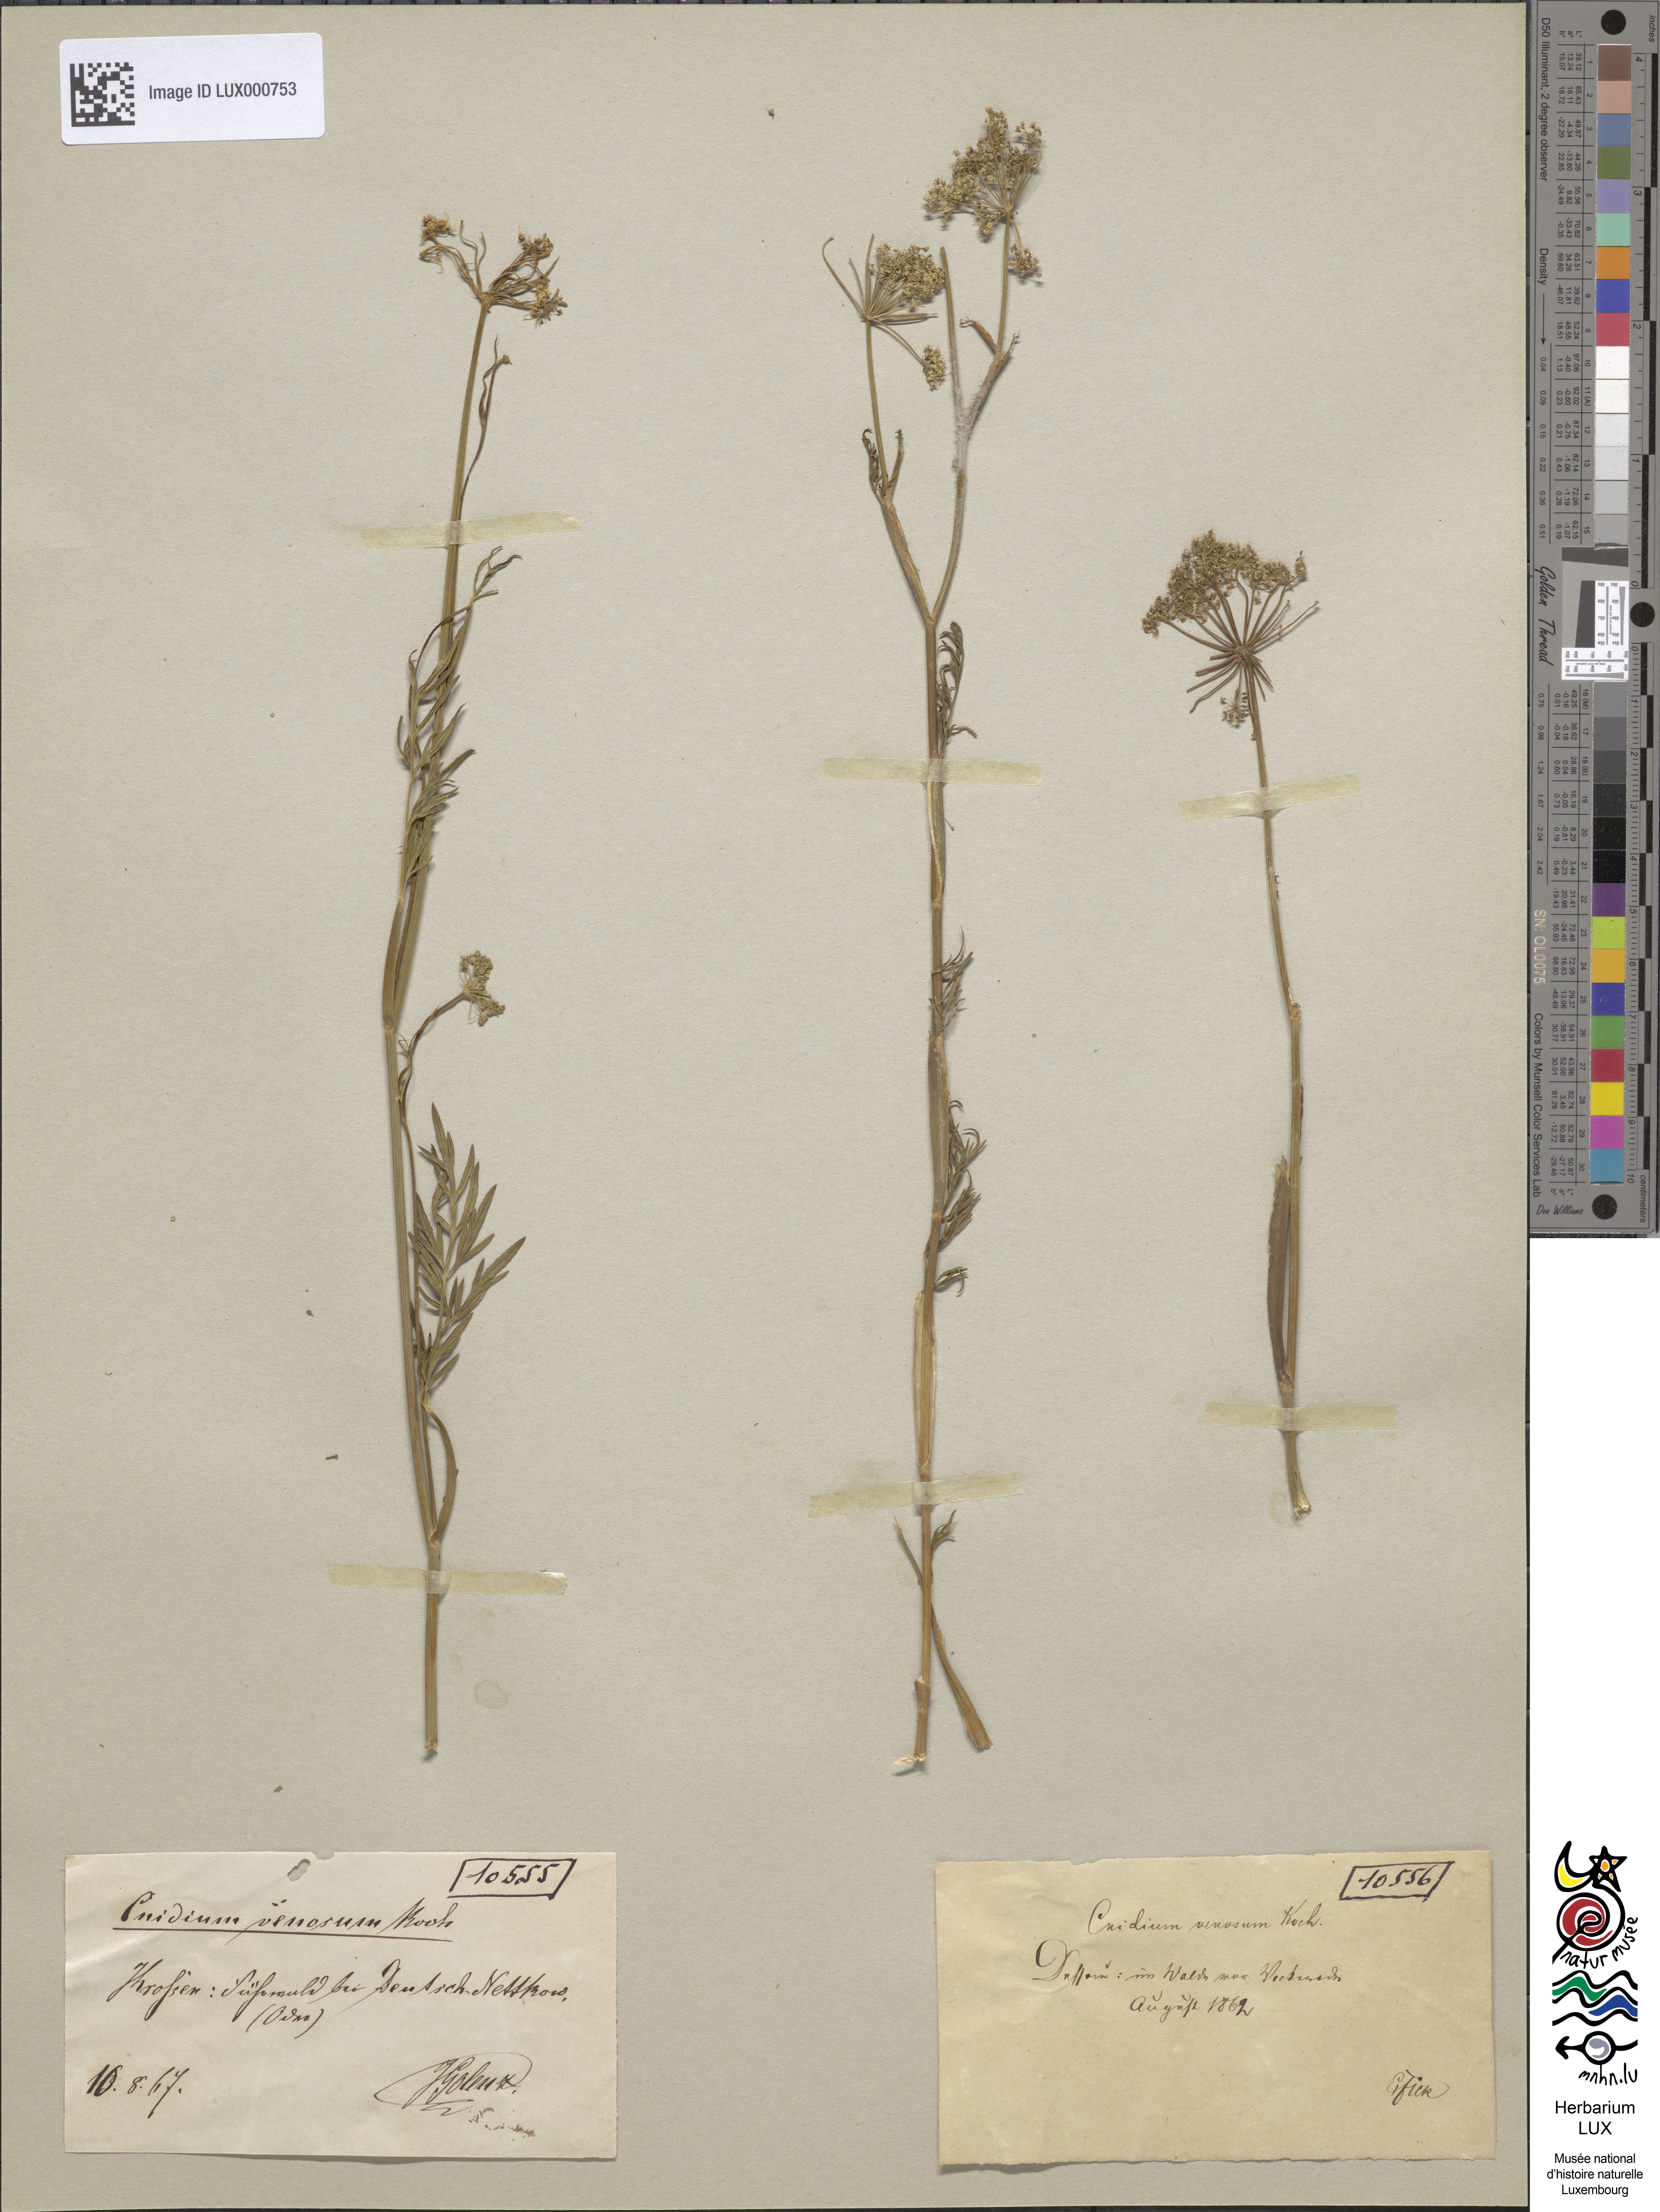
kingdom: Plantae
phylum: Tracheophyta
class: Magnoliopsida
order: Apiales
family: Apiaceae
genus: Kadenia
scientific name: Kadenia dubia
